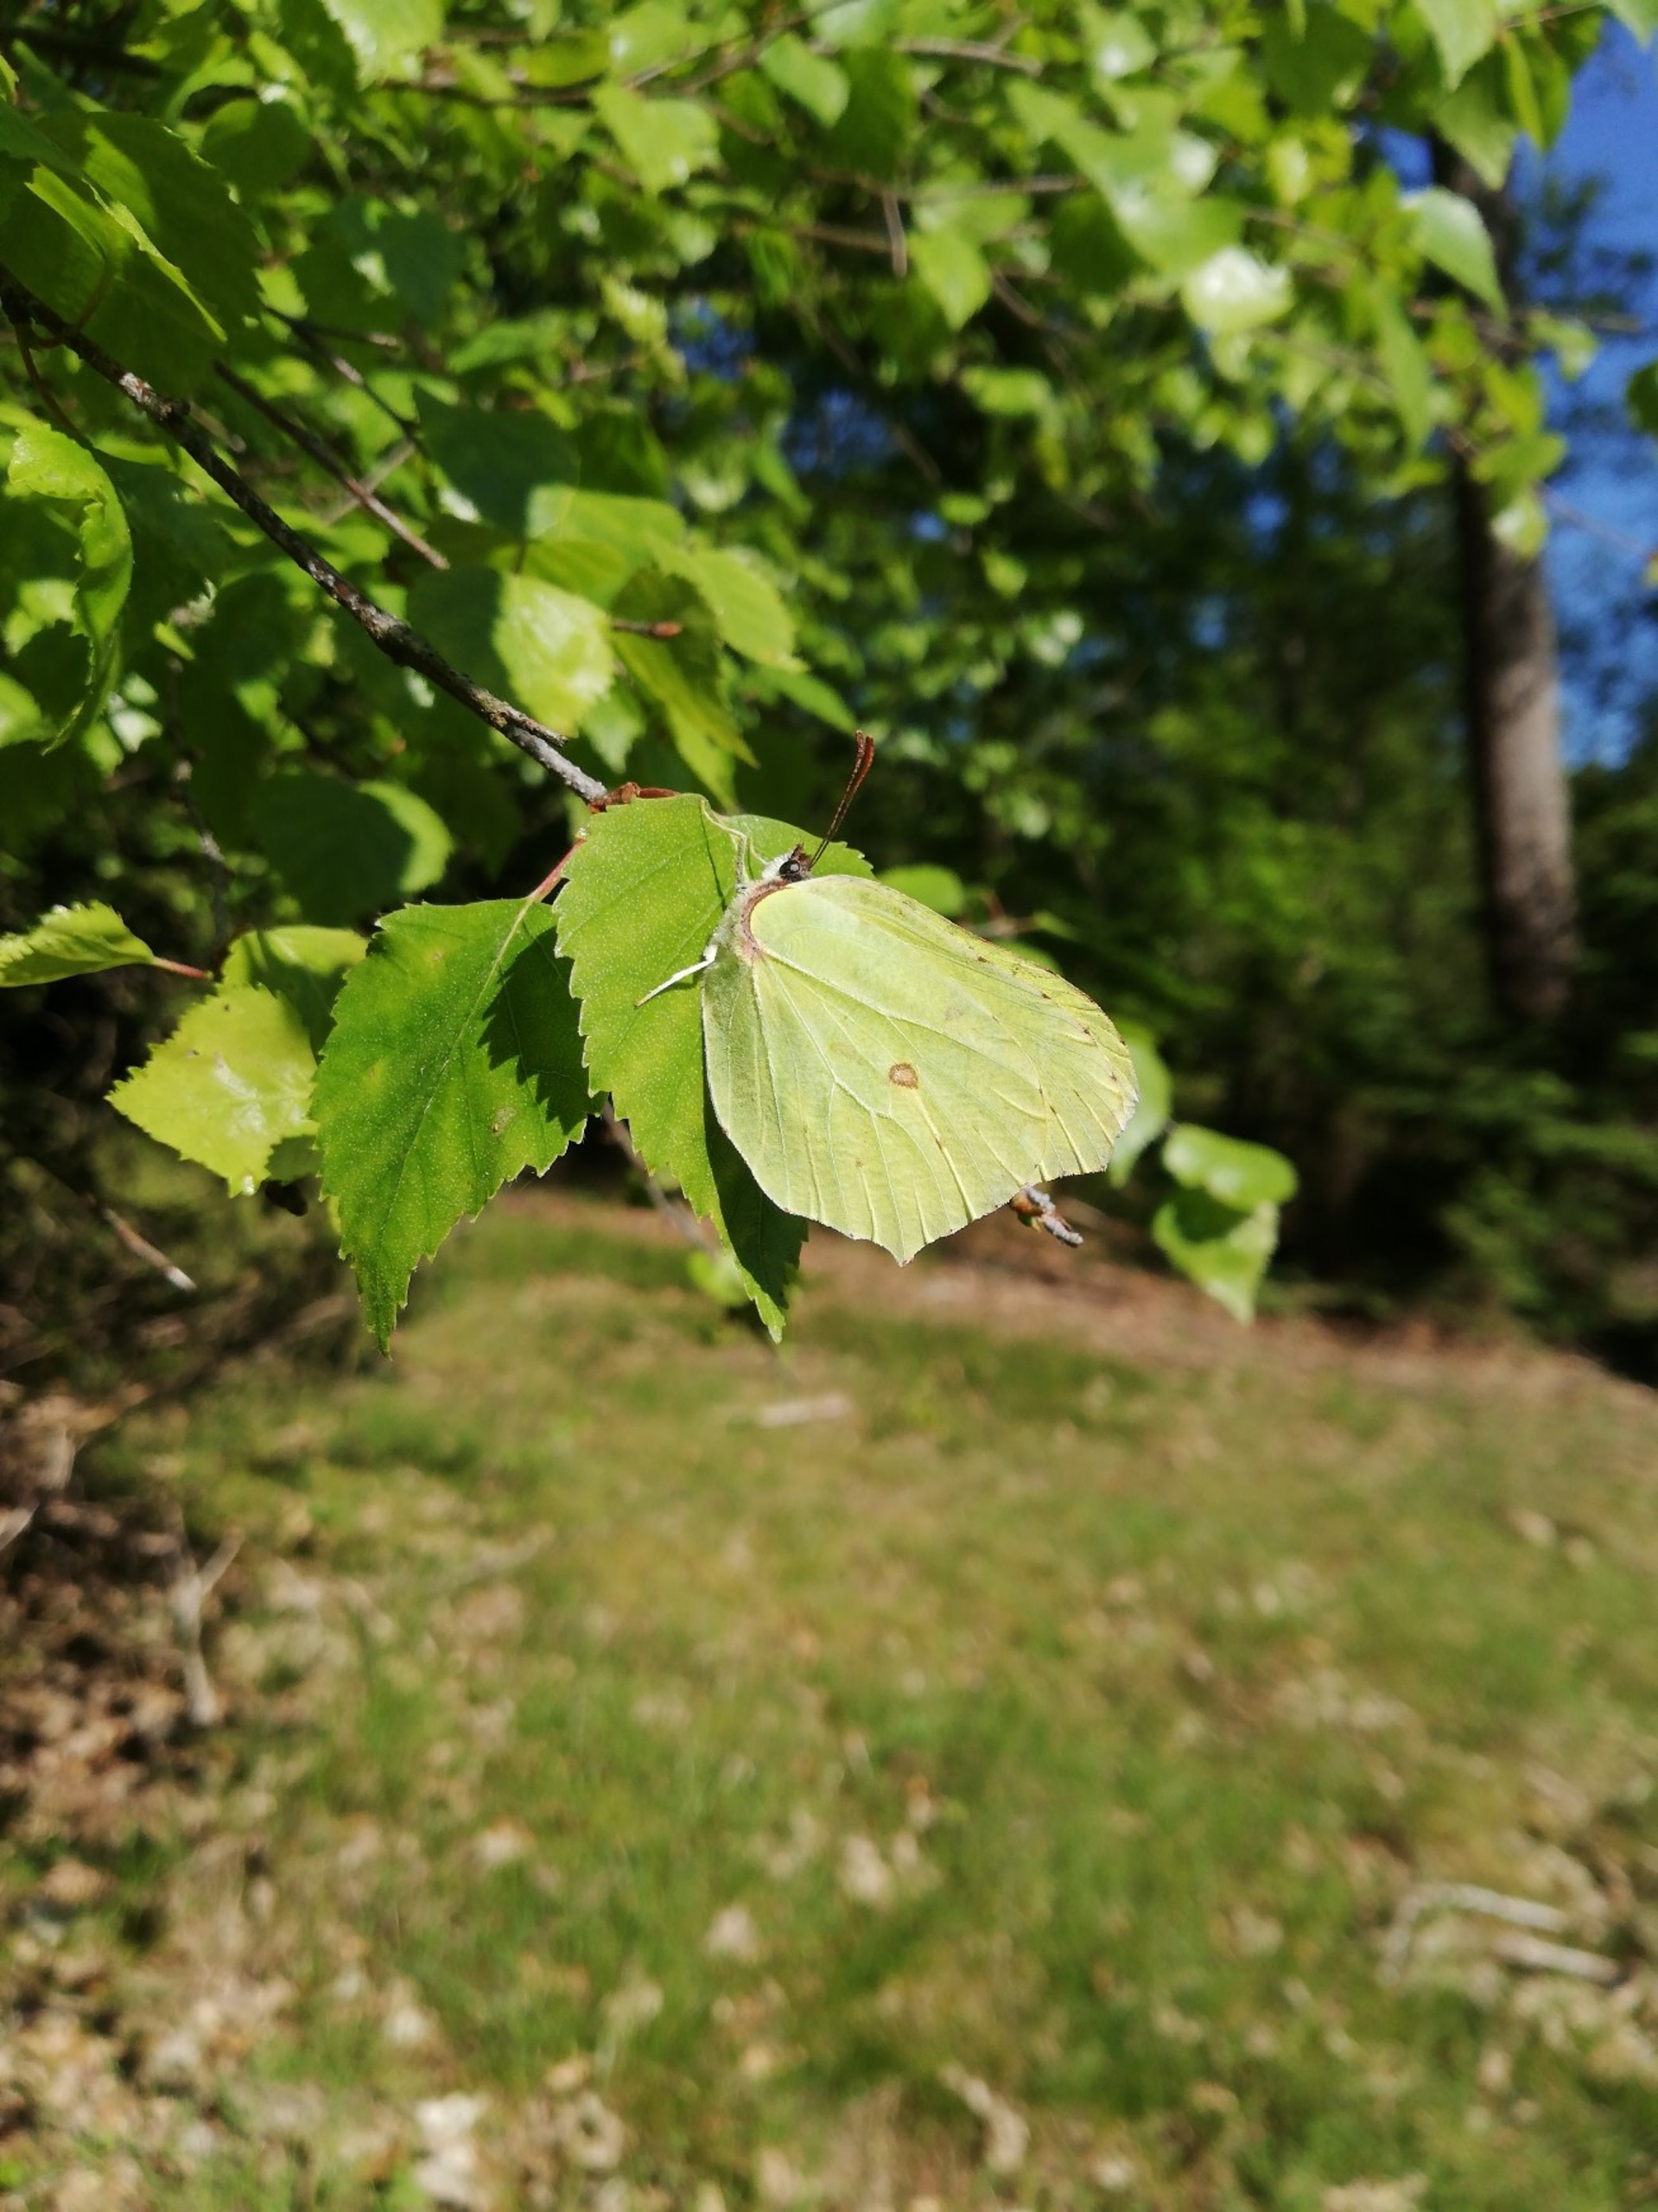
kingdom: Animalia
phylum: Arthropoda
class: Insecta
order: Lepidoptera
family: Pieridae
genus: Gonepteryx
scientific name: Gonepteryx rhamni
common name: Citronsommerfugl
